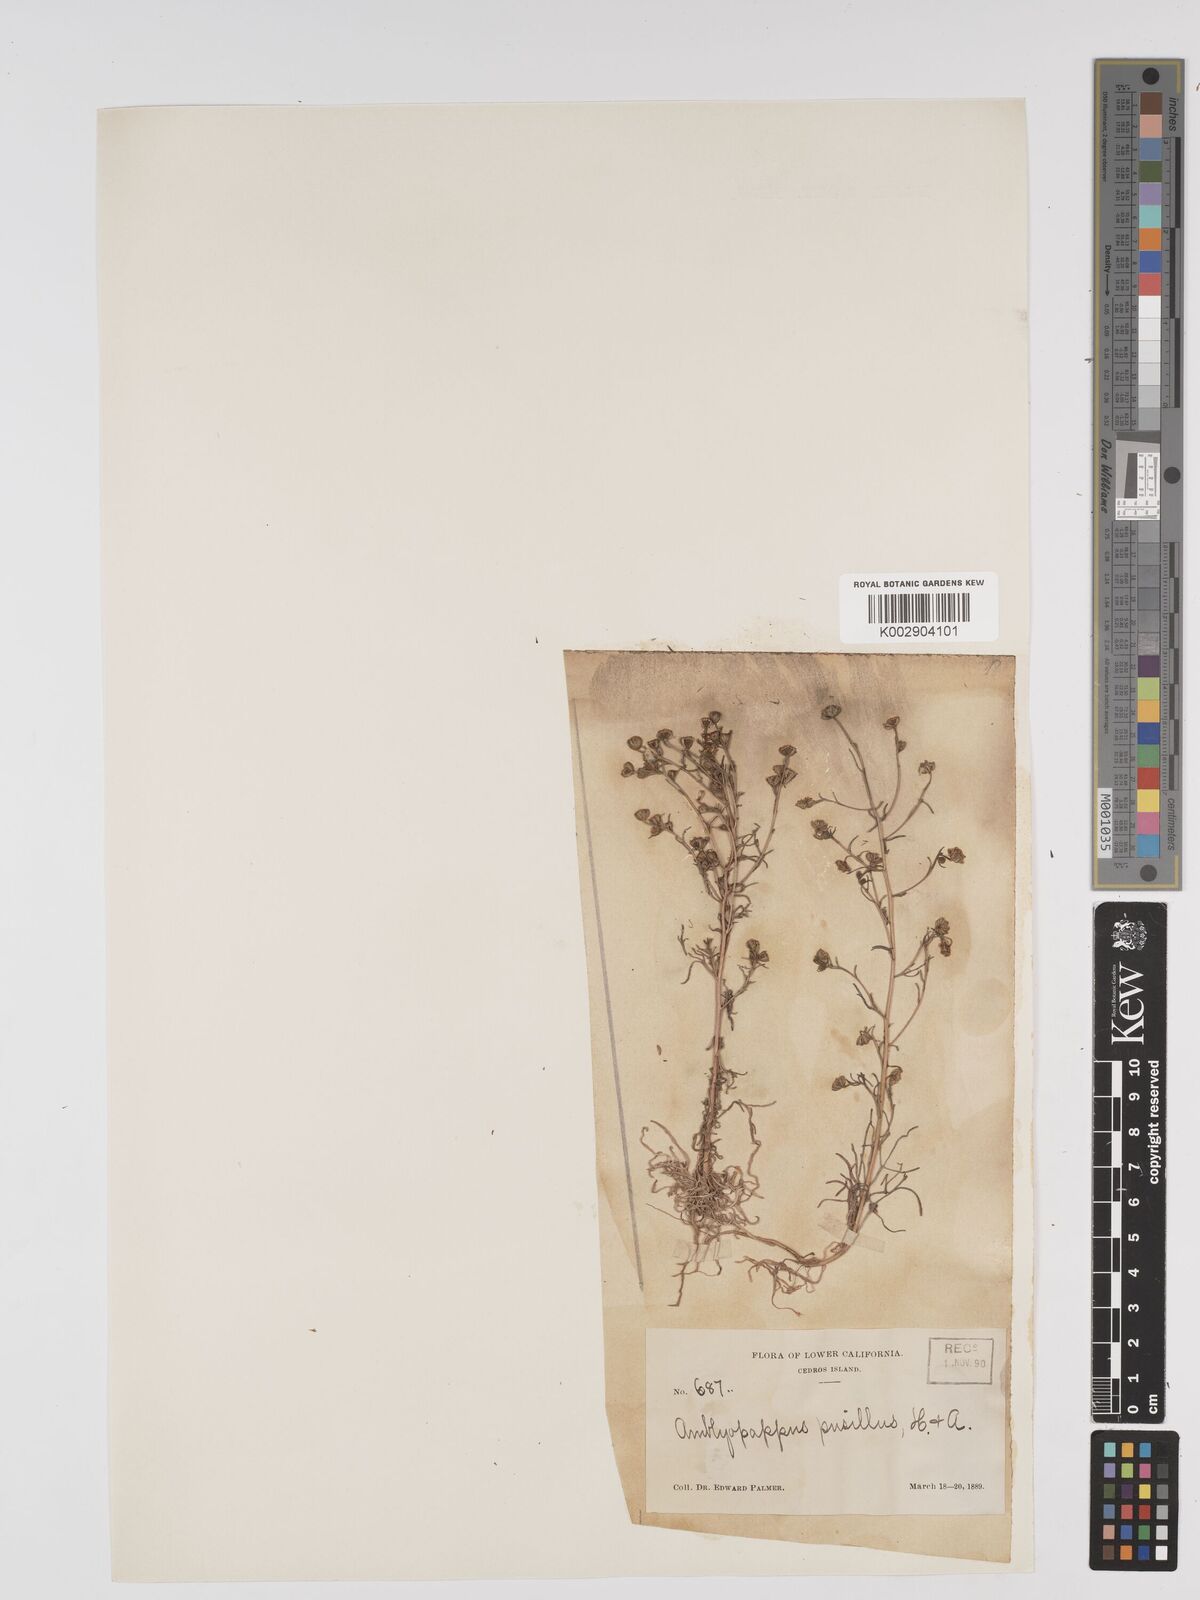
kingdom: Plantae
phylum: Tracheophyta
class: Magnoliopsida
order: Asterales
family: Asteraceae
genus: Amblyopappus
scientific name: Amblyopappus pusillus
